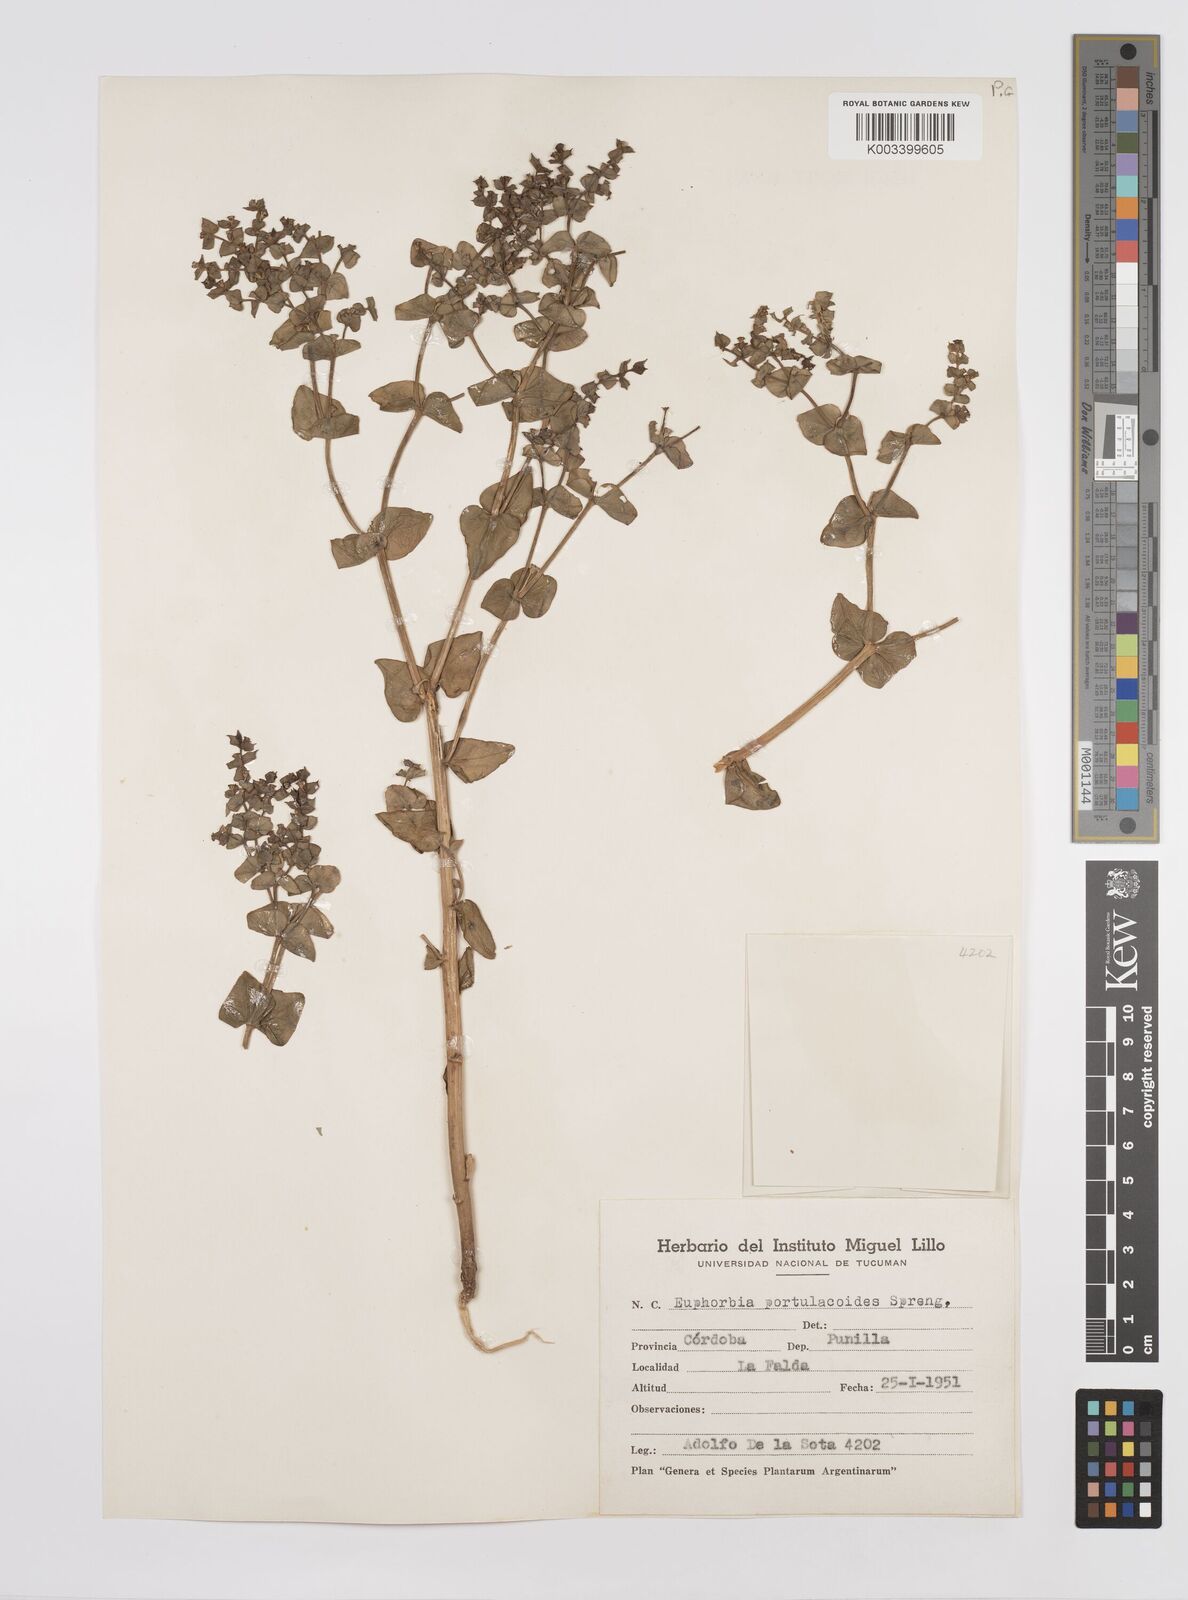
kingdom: Plantae
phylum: Tracheophyta
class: Magnoliopsida
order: Malpighiales
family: Euphorbiaceae
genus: Euphorbia
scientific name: Euphorbia portulacoides
